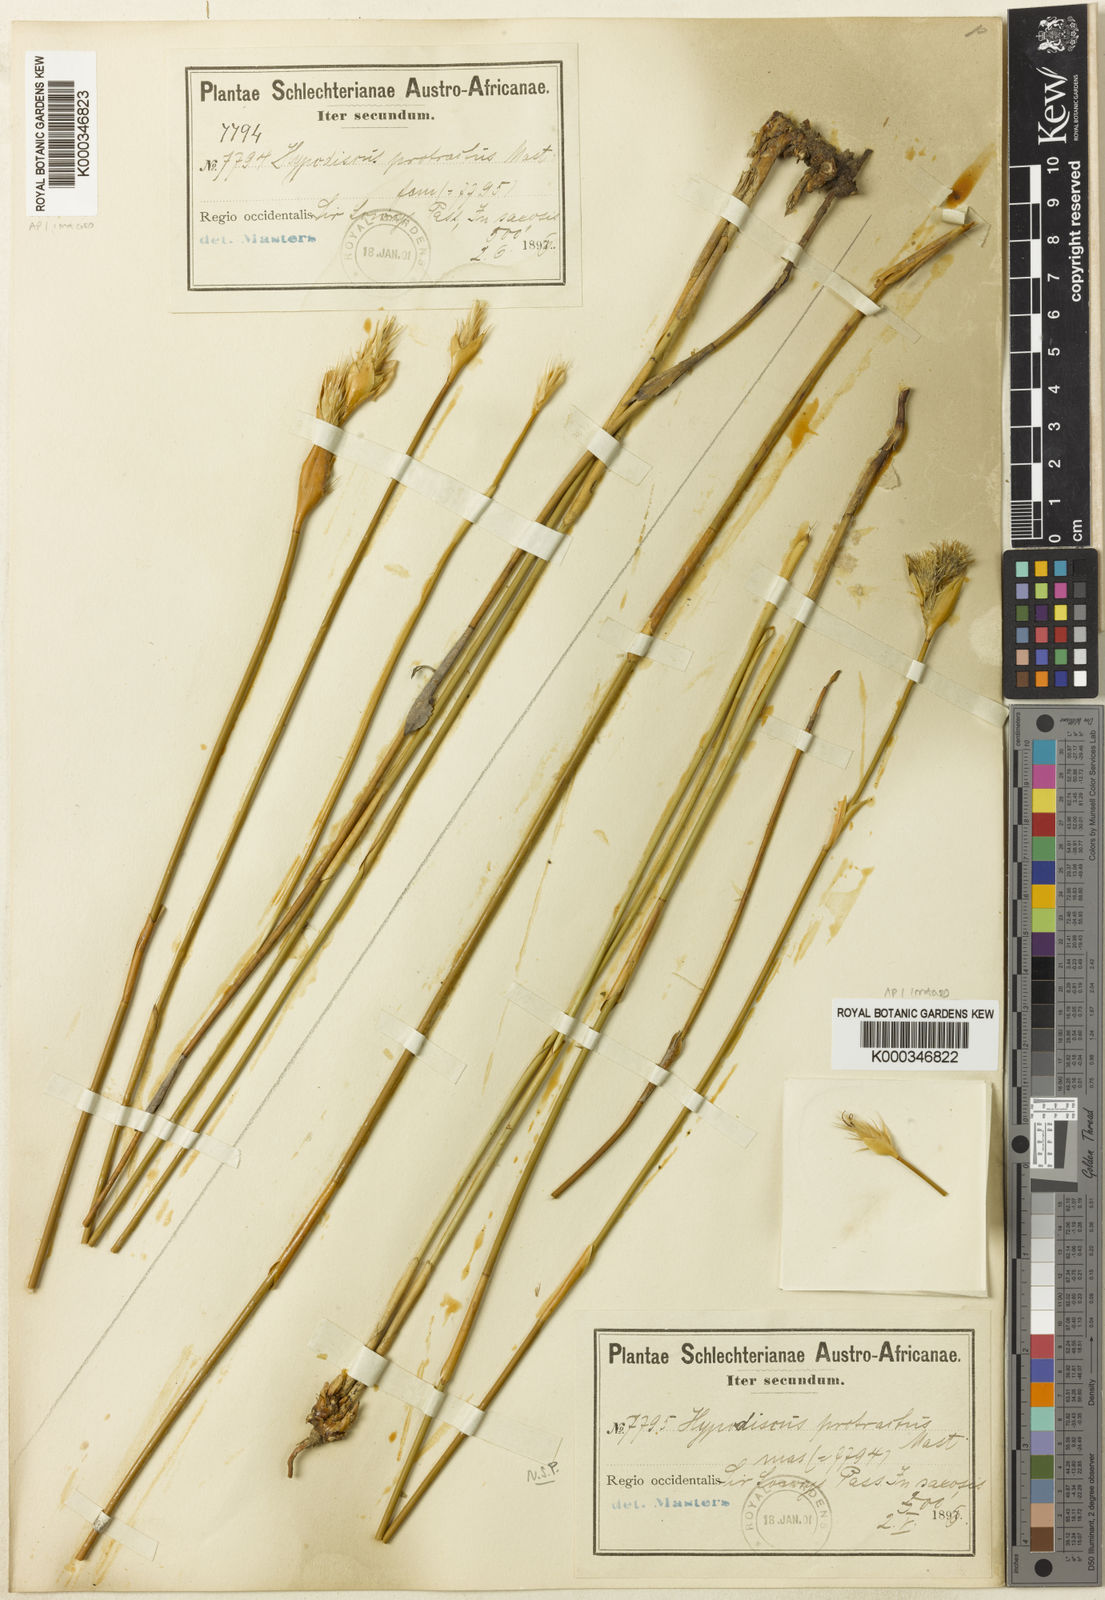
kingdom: Plantae
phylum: Tracheophyta
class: Liliopsida
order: Poales
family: Restionaceae
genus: Hypodiscus
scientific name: Hypodiscus aristatus
